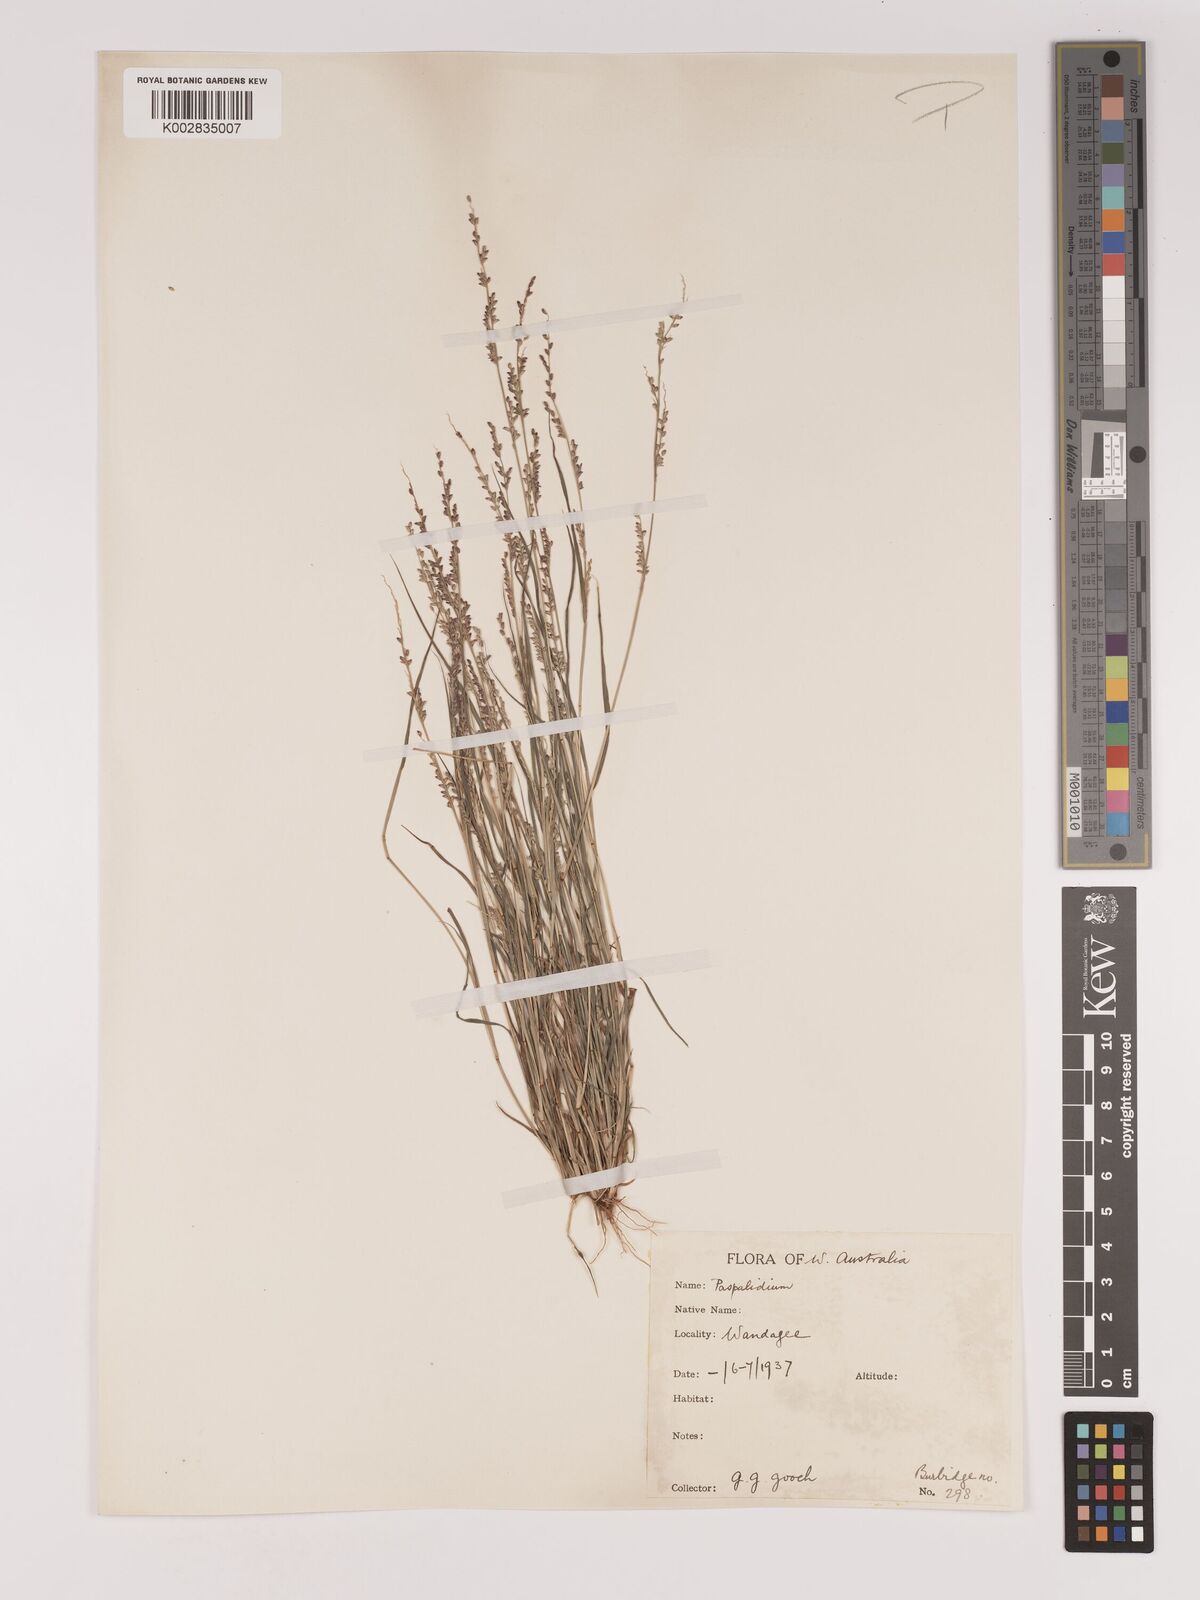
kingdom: Plantae
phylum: Tracheophyta
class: Liliopsida
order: Poales
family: Poaceae
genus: Setaria
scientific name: Setaria
